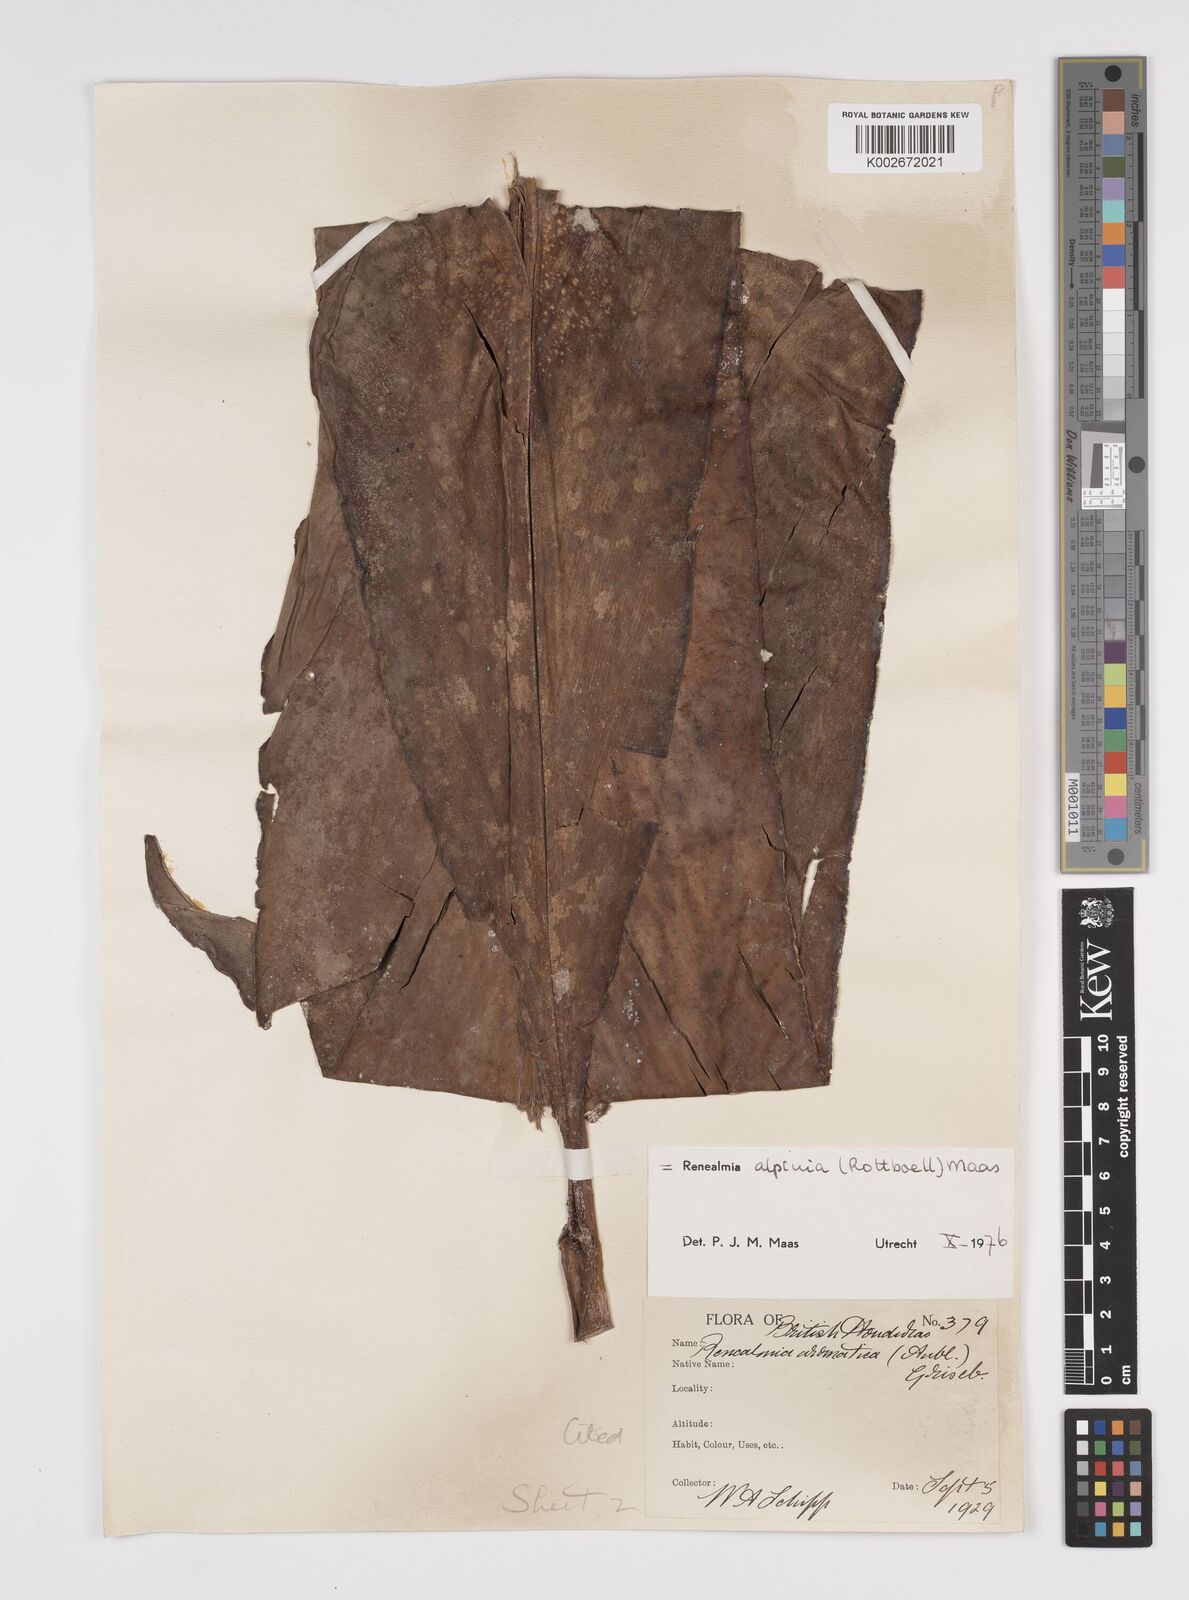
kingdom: Plantae
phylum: Tracheophyta
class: Liliopsida
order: Zingiberales
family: Zingiberaceae
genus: Renealmia
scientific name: Renealmia alpinia
